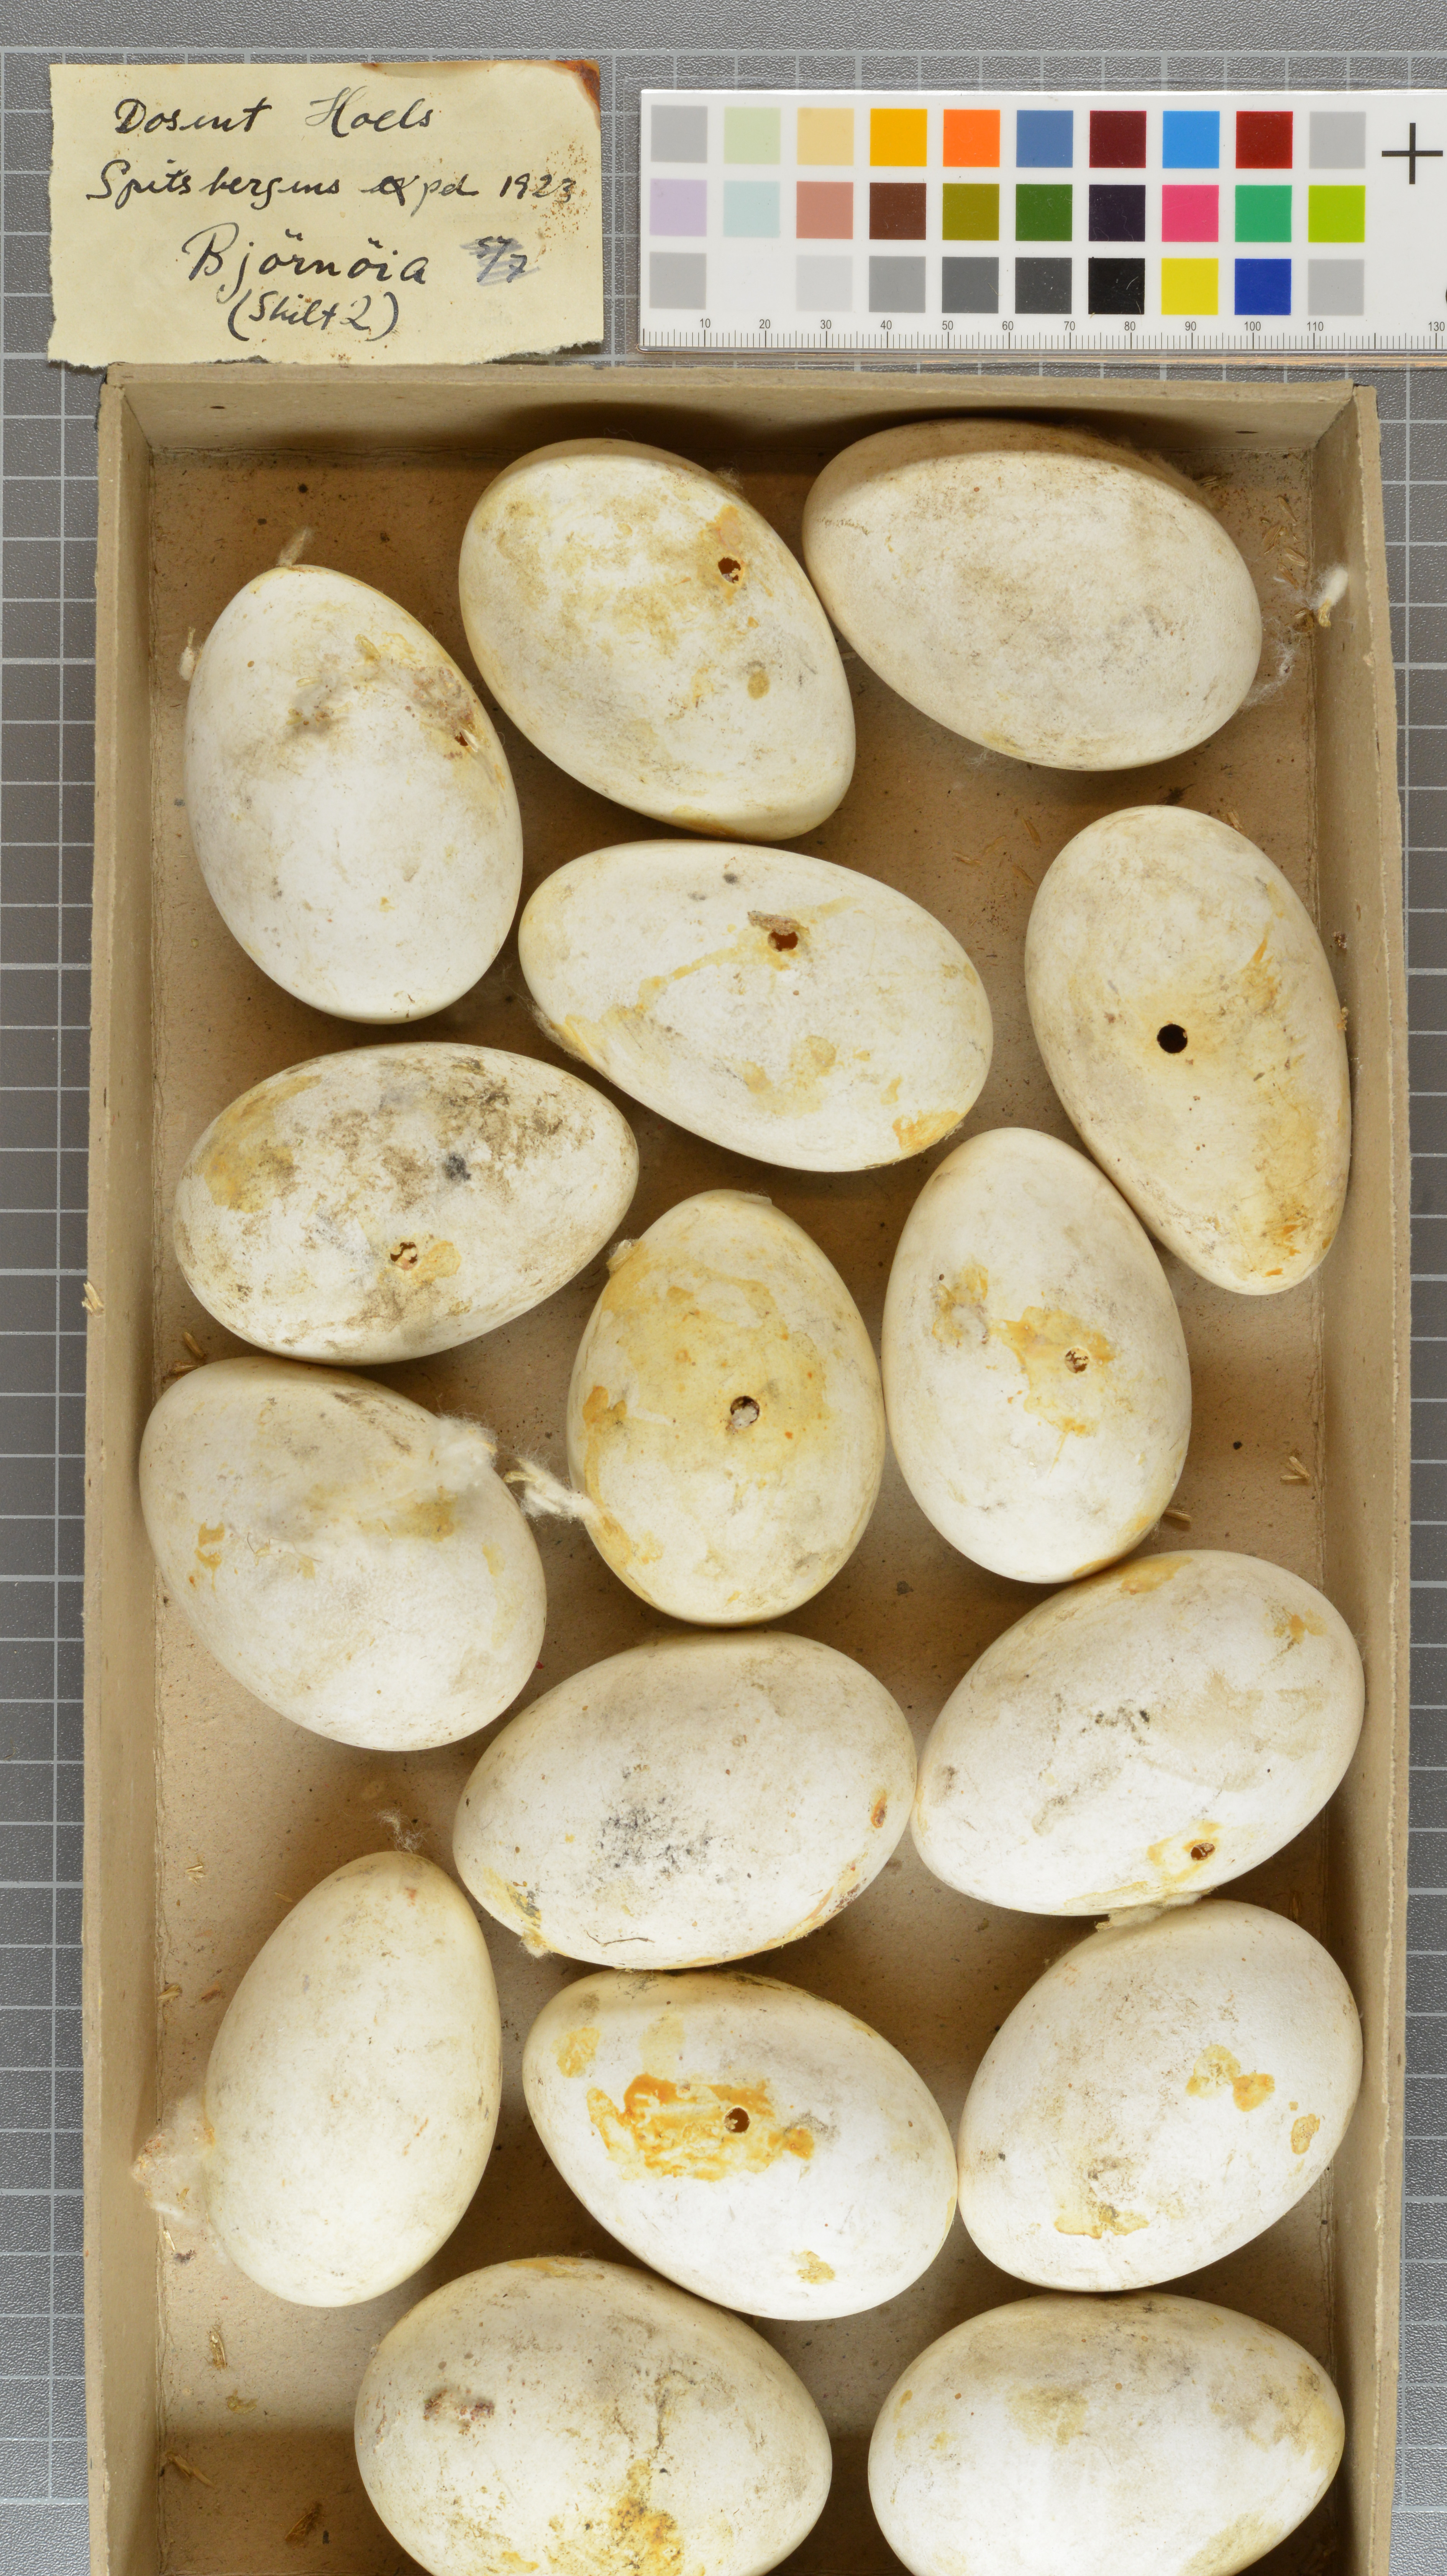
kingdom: Animalia
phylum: Chordata
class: Aves
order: Anseriformes
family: Anatidae
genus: Anser
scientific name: Anser
